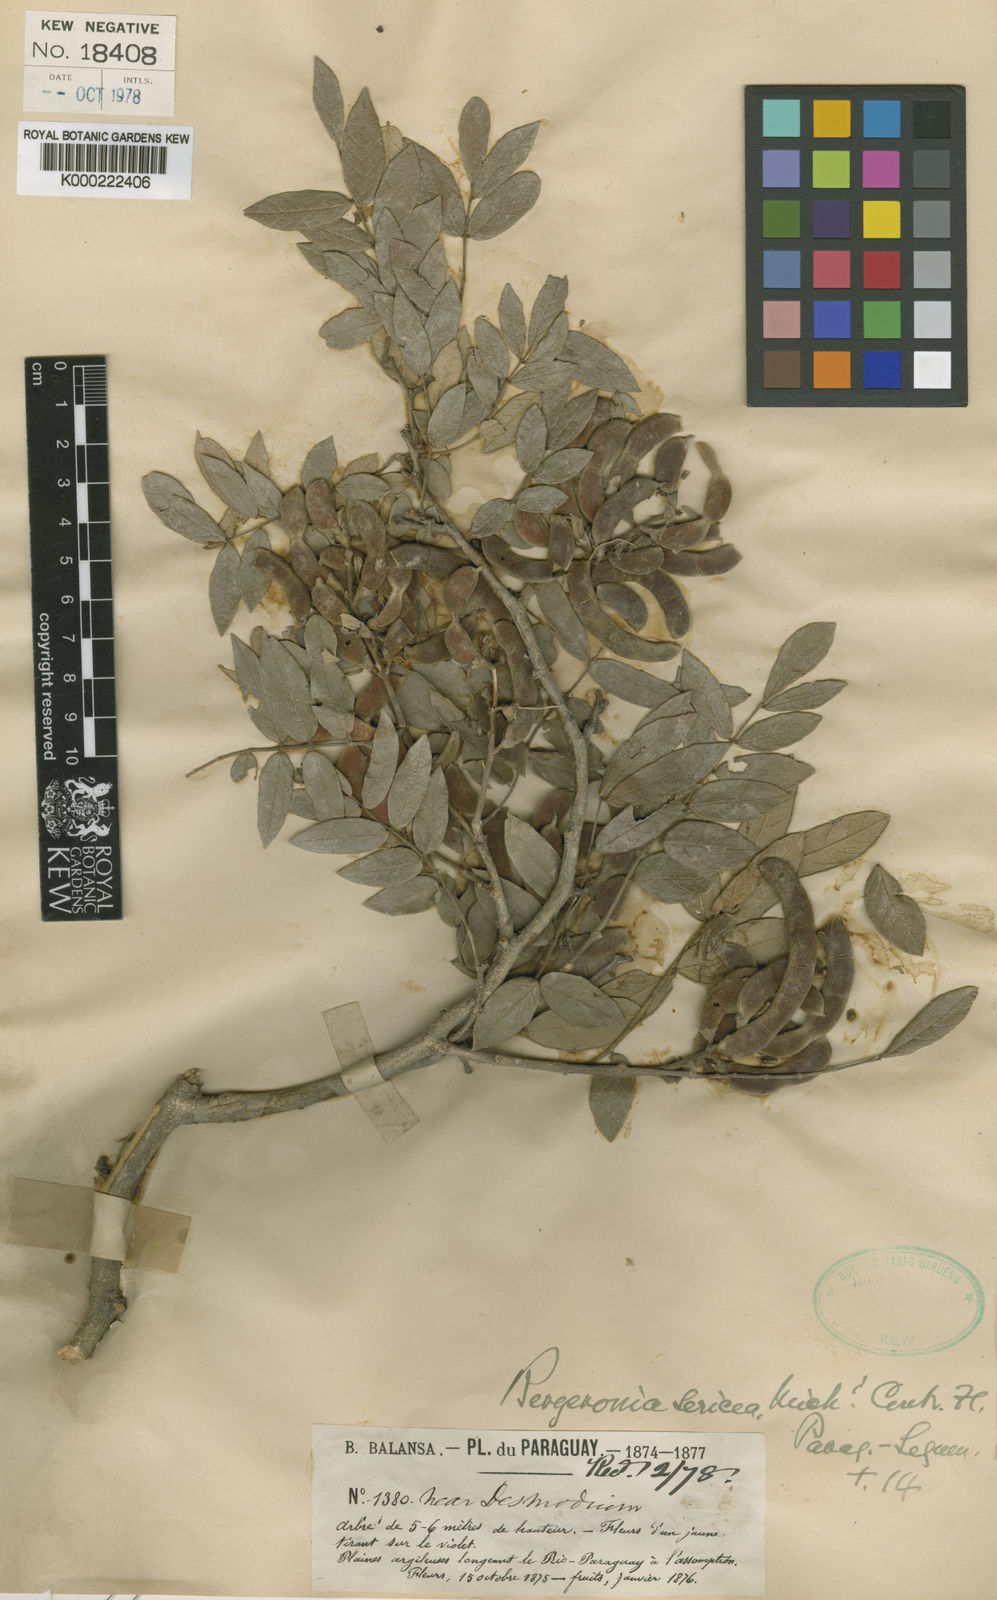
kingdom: Plantae
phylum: Tracheophyta
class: Magnoliopsida
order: Fabales
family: Fabaceae
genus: Muellera
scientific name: Muellera sericea
